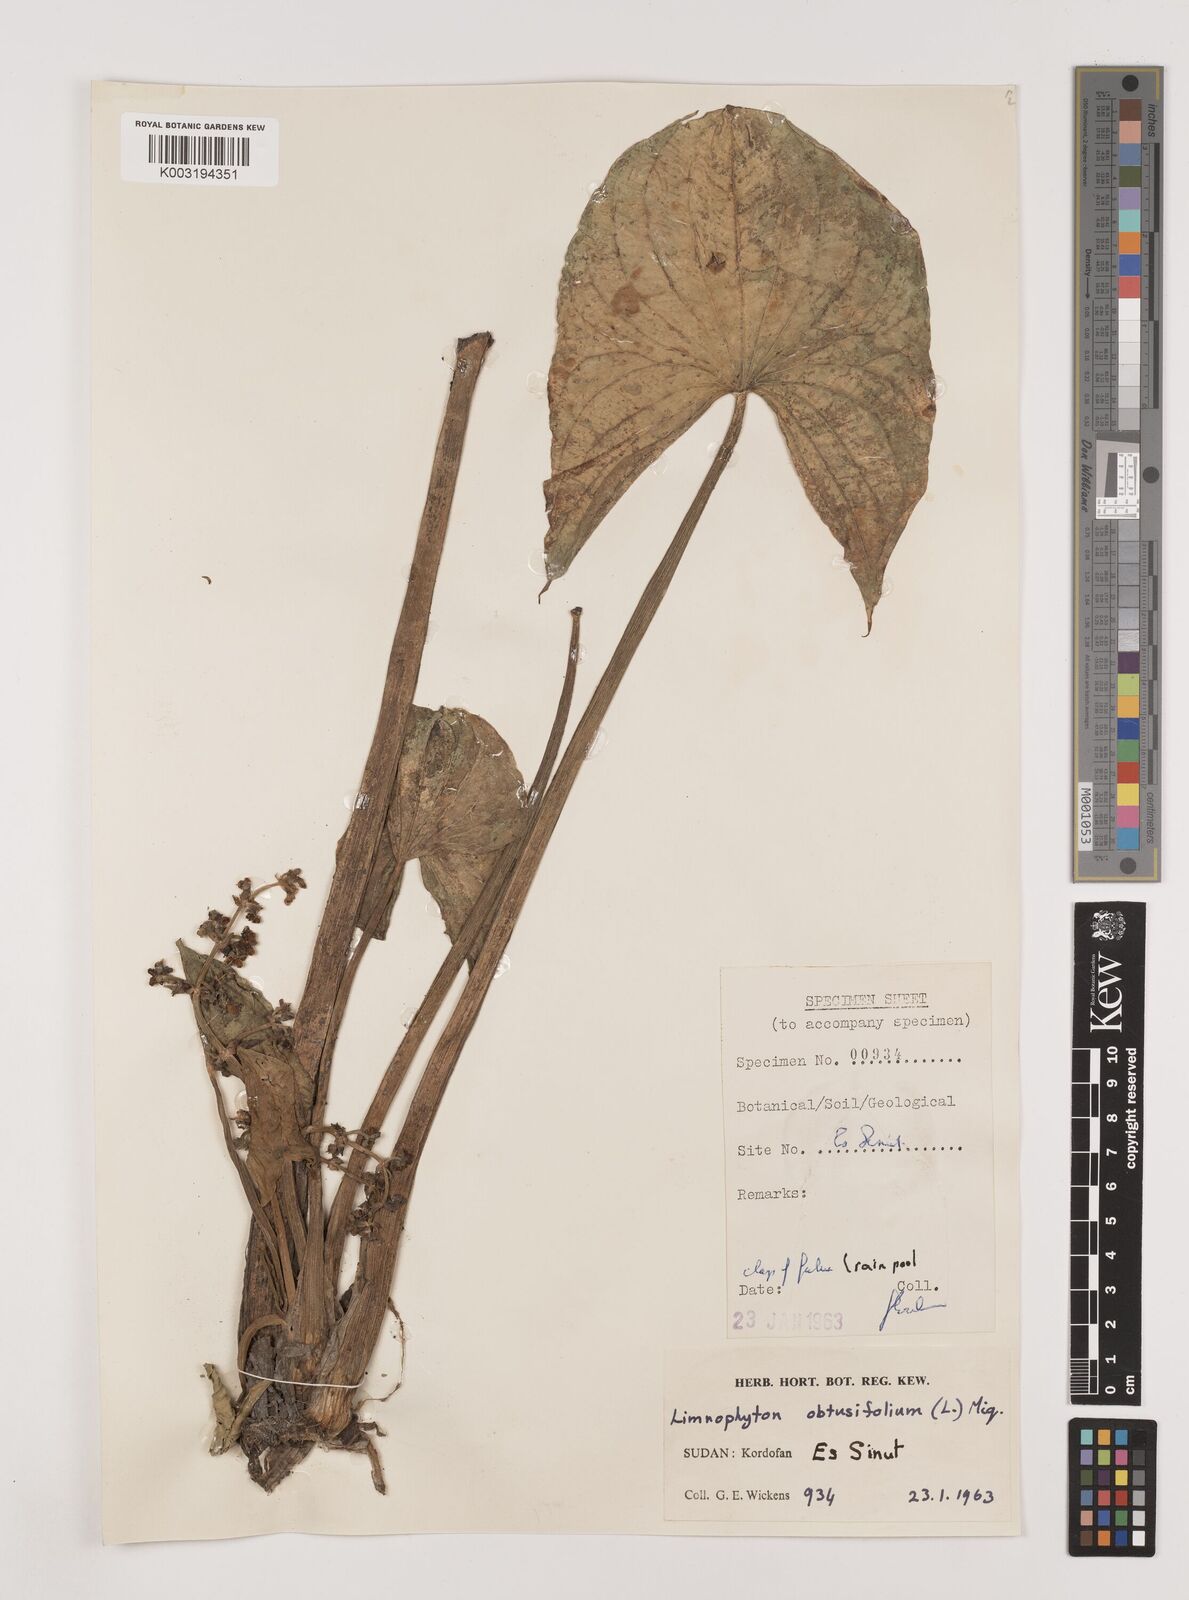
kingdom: Plantae
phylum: Tracheophyta
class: Liliopsida
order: Alismatales
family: Alismataceae
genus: Limnophyton
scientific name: Limnophyton obtusifolium
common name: Arrow head
